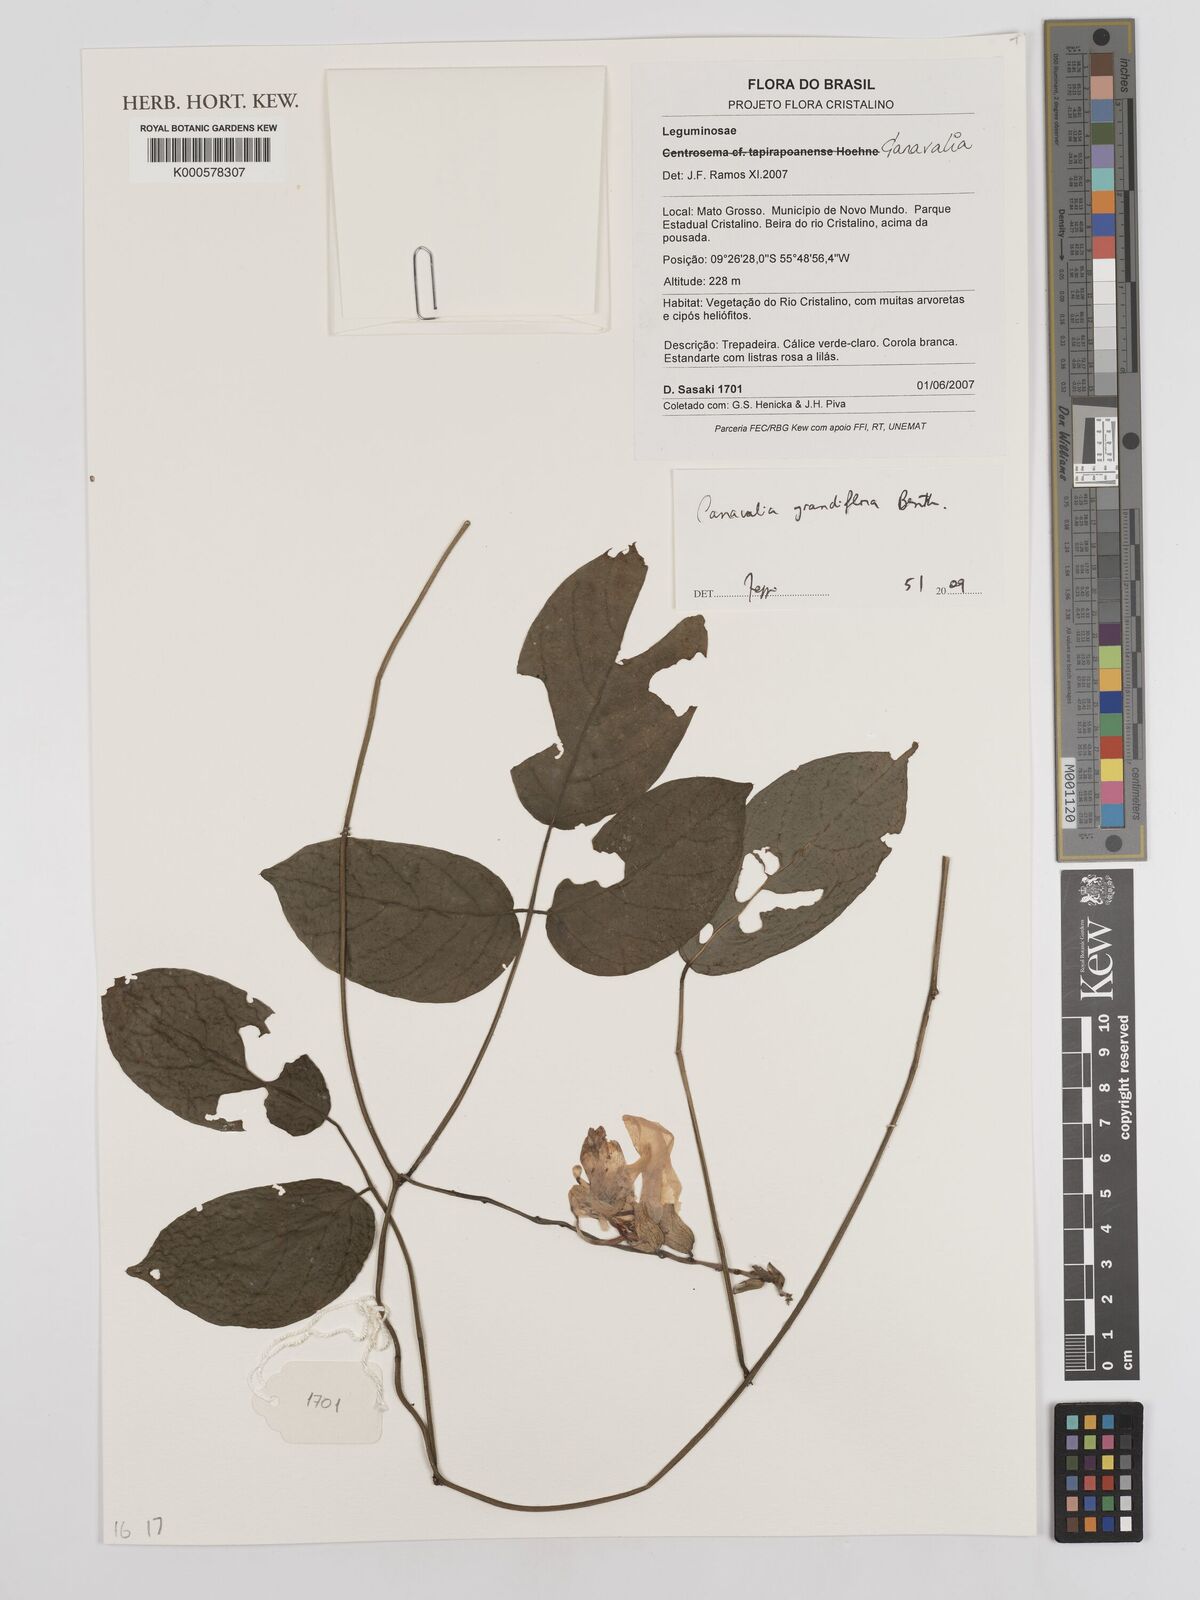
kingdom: Plantae
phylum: Tracheophyta
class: Magnoliopsida
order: Fabales
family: Fabaceae
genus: Canavalia
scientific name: Canavalia grandiflora
